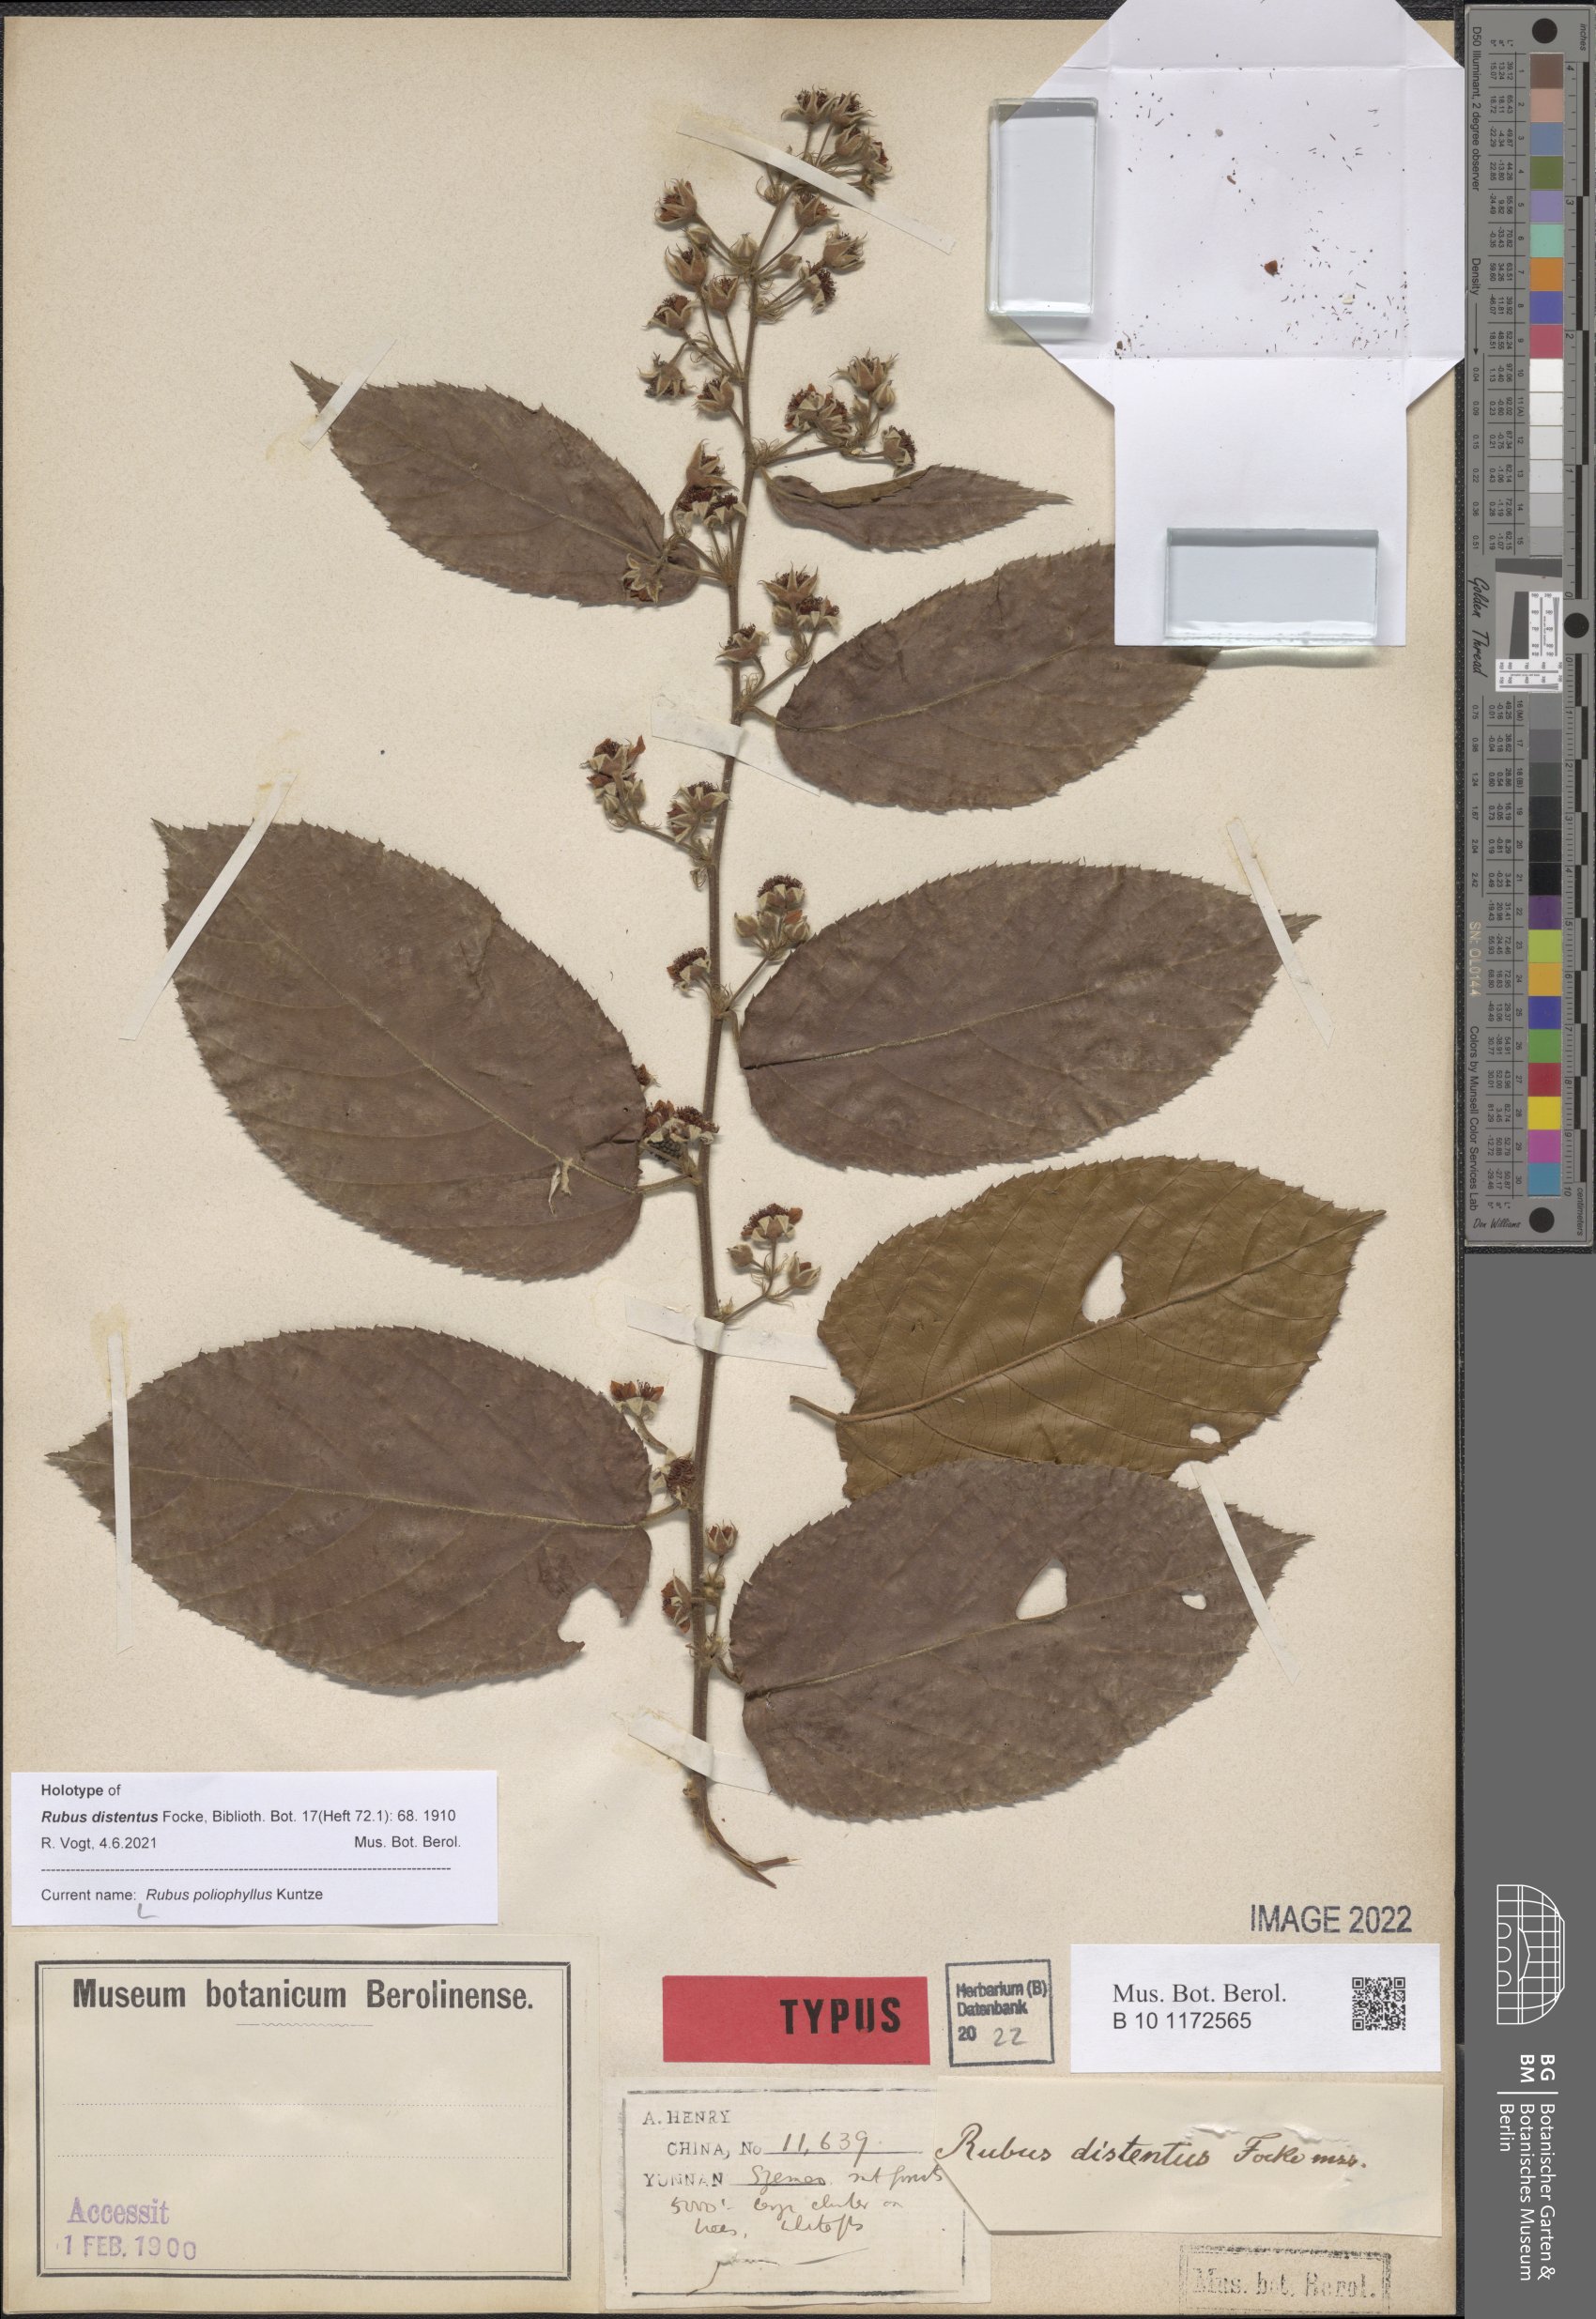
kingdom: Plantae
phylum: Tracheophyta
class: Magnoliopsida
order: Rosales
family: Rosaceae
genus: Rubus
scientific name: Rubus poliophyllus
